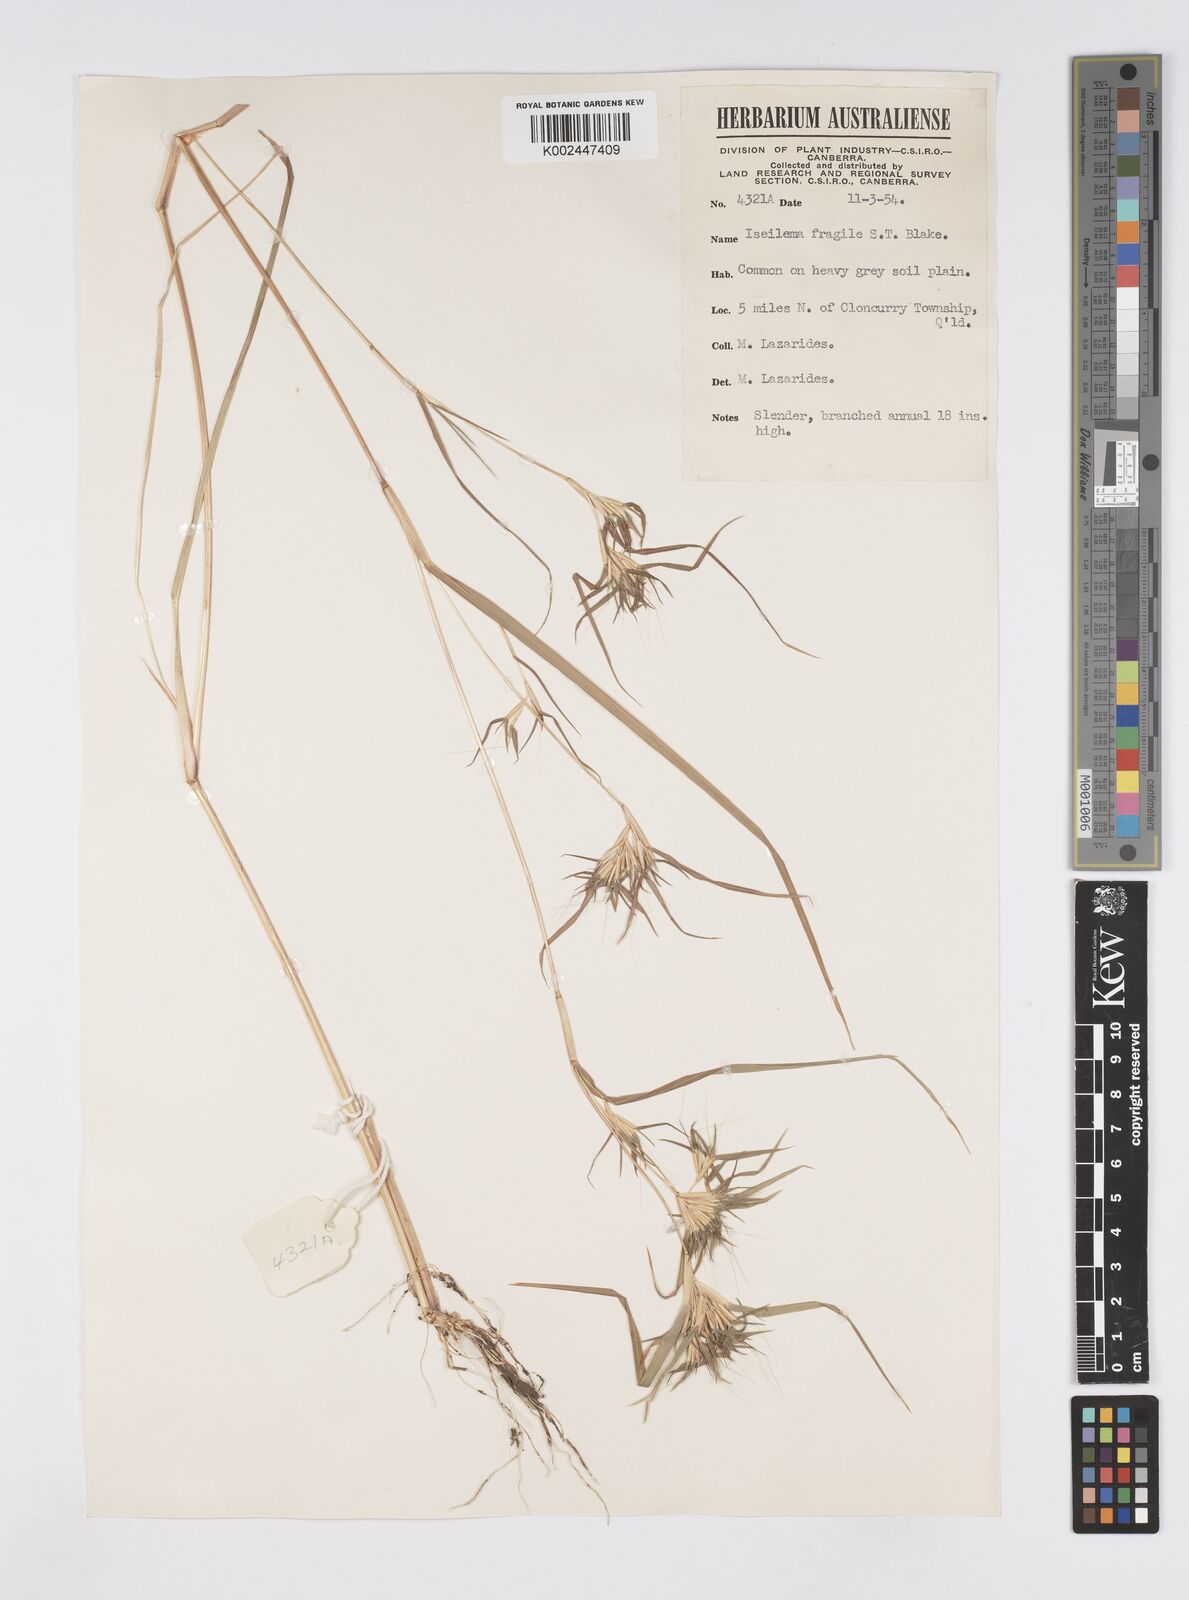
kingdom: Plantae
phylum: Tracheophyta
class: Liliopsida
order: Poales
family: Poaceae
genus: Iseilema
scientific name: Iseilema fragile
